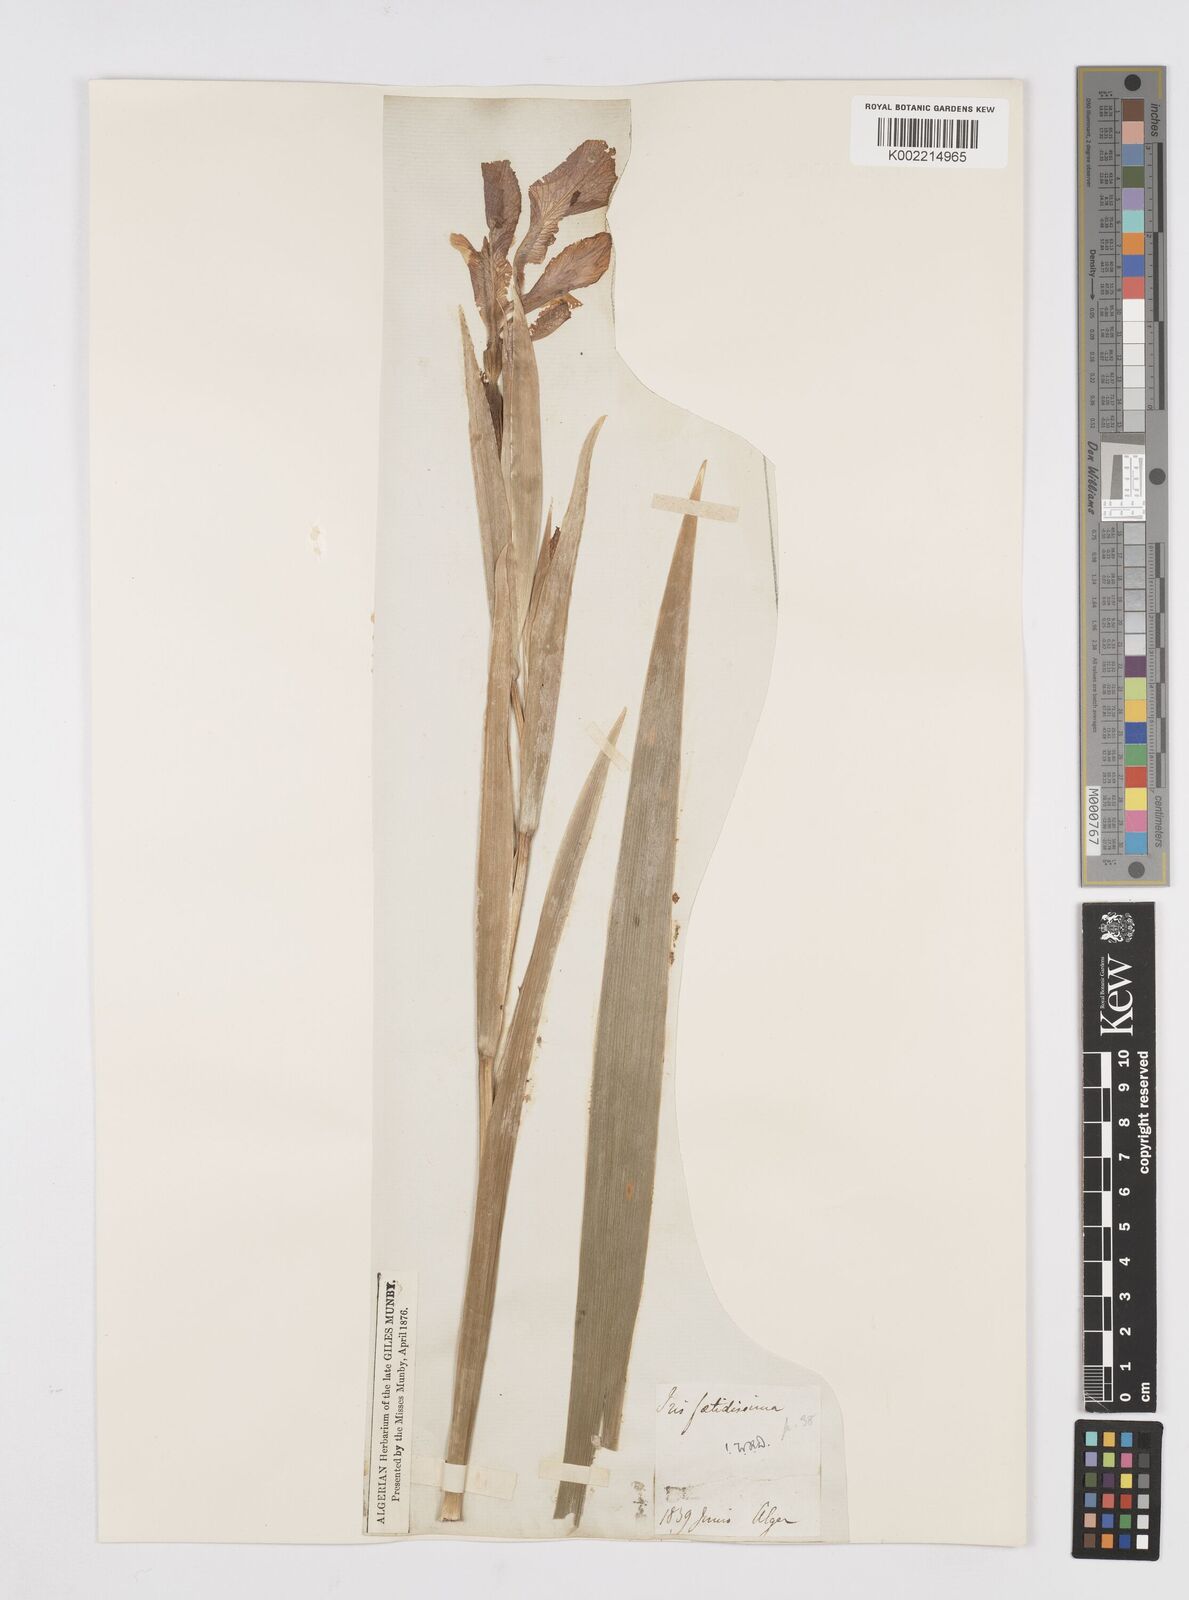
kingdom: Plantae
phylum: Tracheophyta
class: Liliopsida
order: Asparagales
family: Iridaceae
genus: Iris
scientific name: Iris foetidissima
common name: Stinking iris
